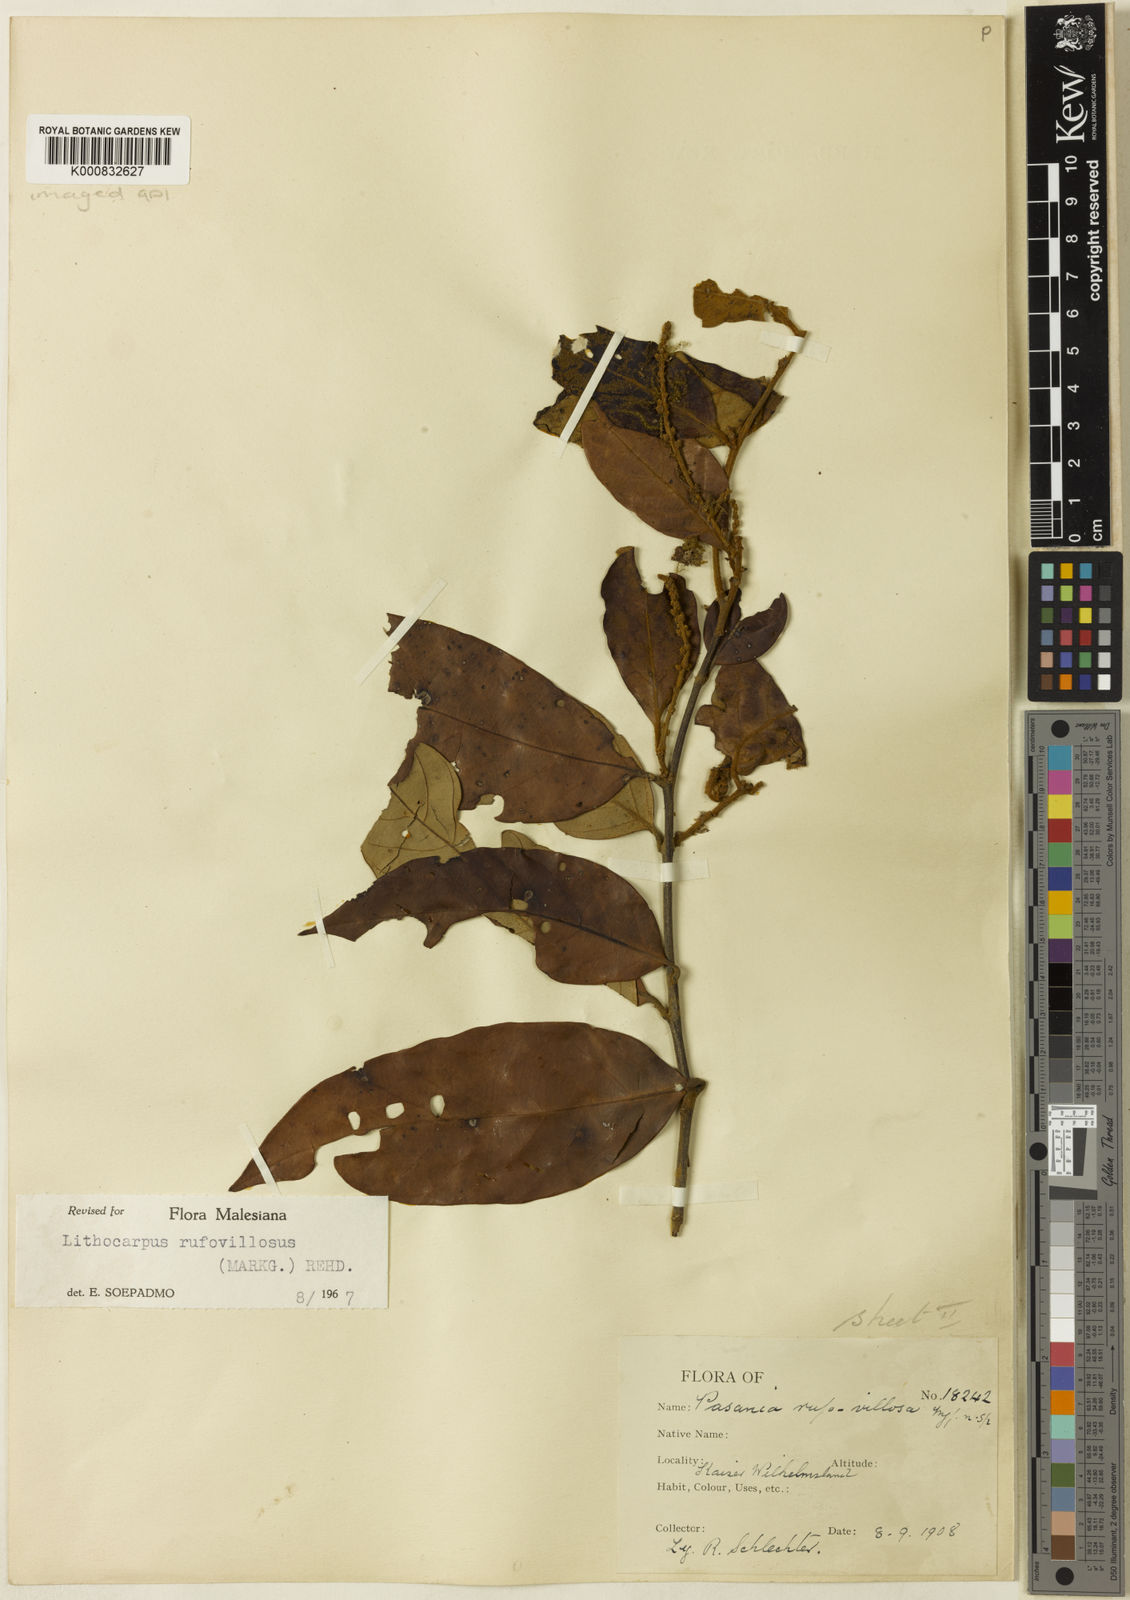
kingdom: Plantae
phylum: Tracheophyta
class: Magnoliopsida
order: Fagales
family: Fagaceae
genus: Lithocarpus
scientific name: Lithocarpus rufovillosus
